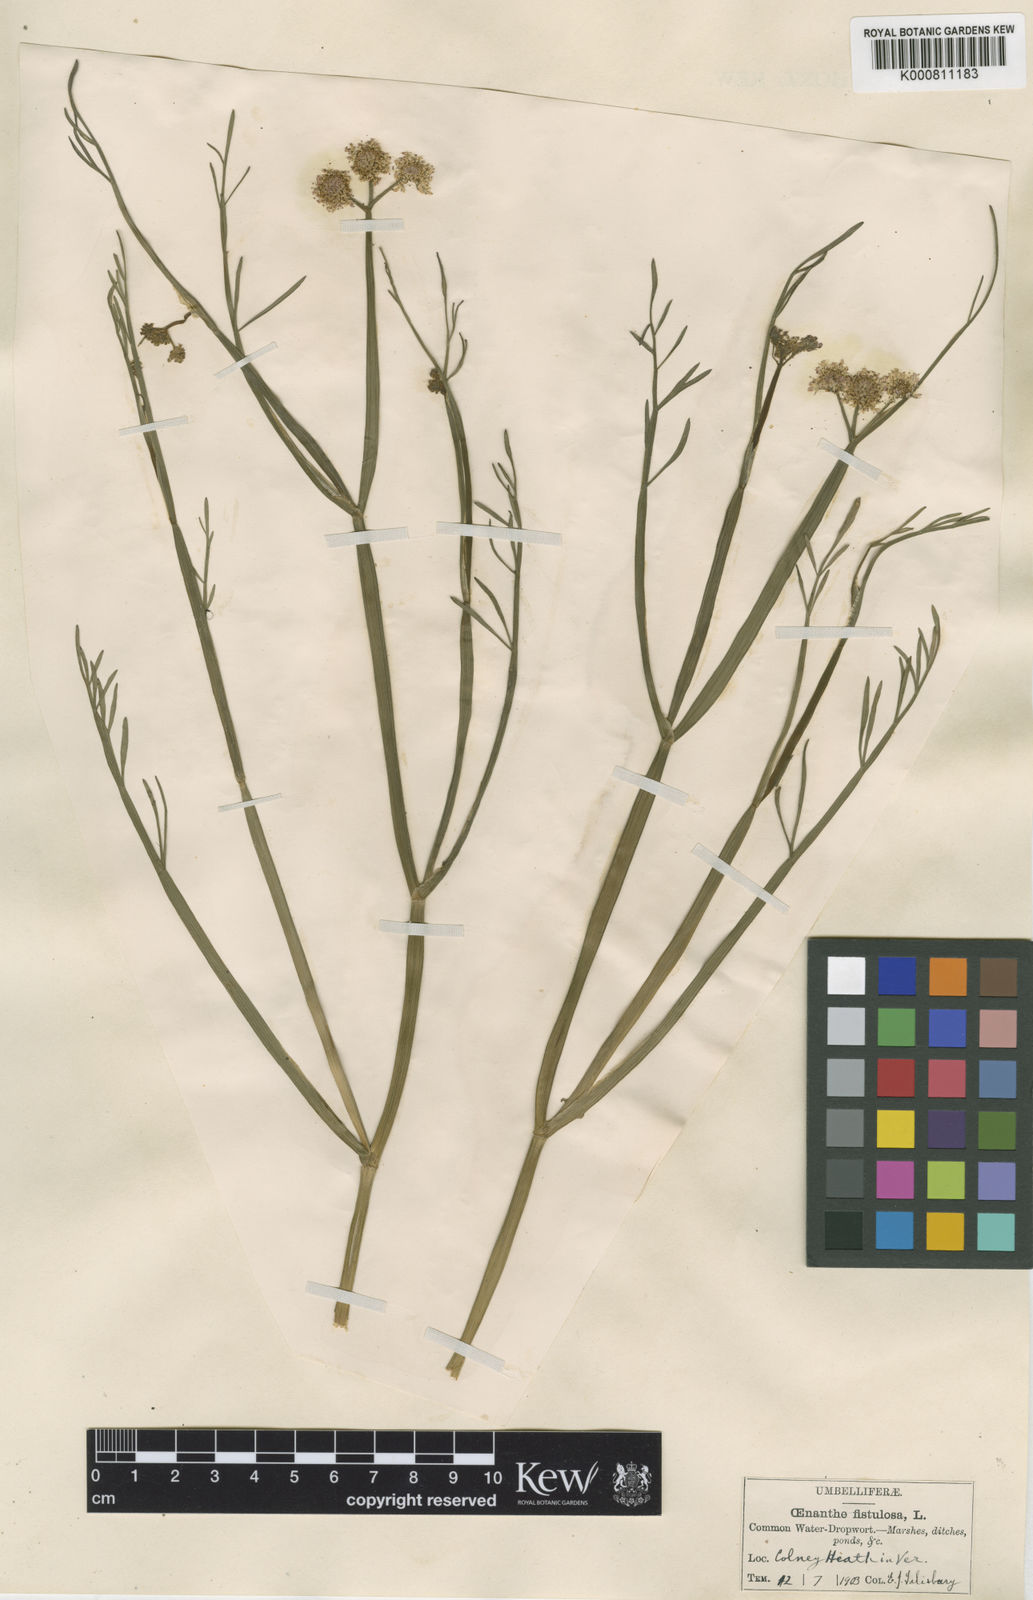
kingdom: Plantae
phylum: Tracheophyta
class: Magnoliopsida
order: Apiales
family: Apiaceae
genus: Oenanthe
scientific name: Oenanthe fistulosa
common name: Tubular water-dropwort
